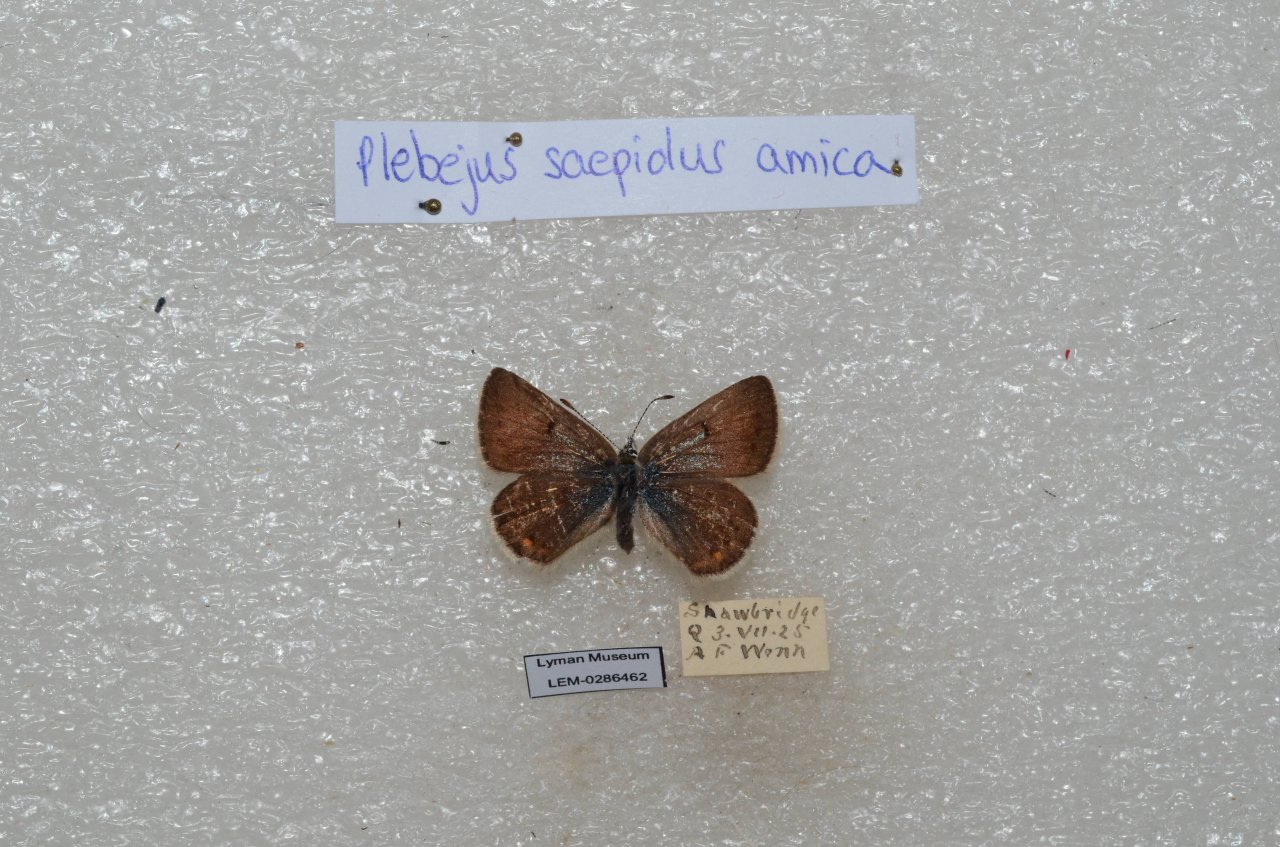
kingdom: Animalia
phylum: Arthropoda
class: Insecta
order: Lepidoptera
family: Lycaenidae
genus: Plebejus
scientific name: Plebejus saepiolus
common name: Greenish Blue
